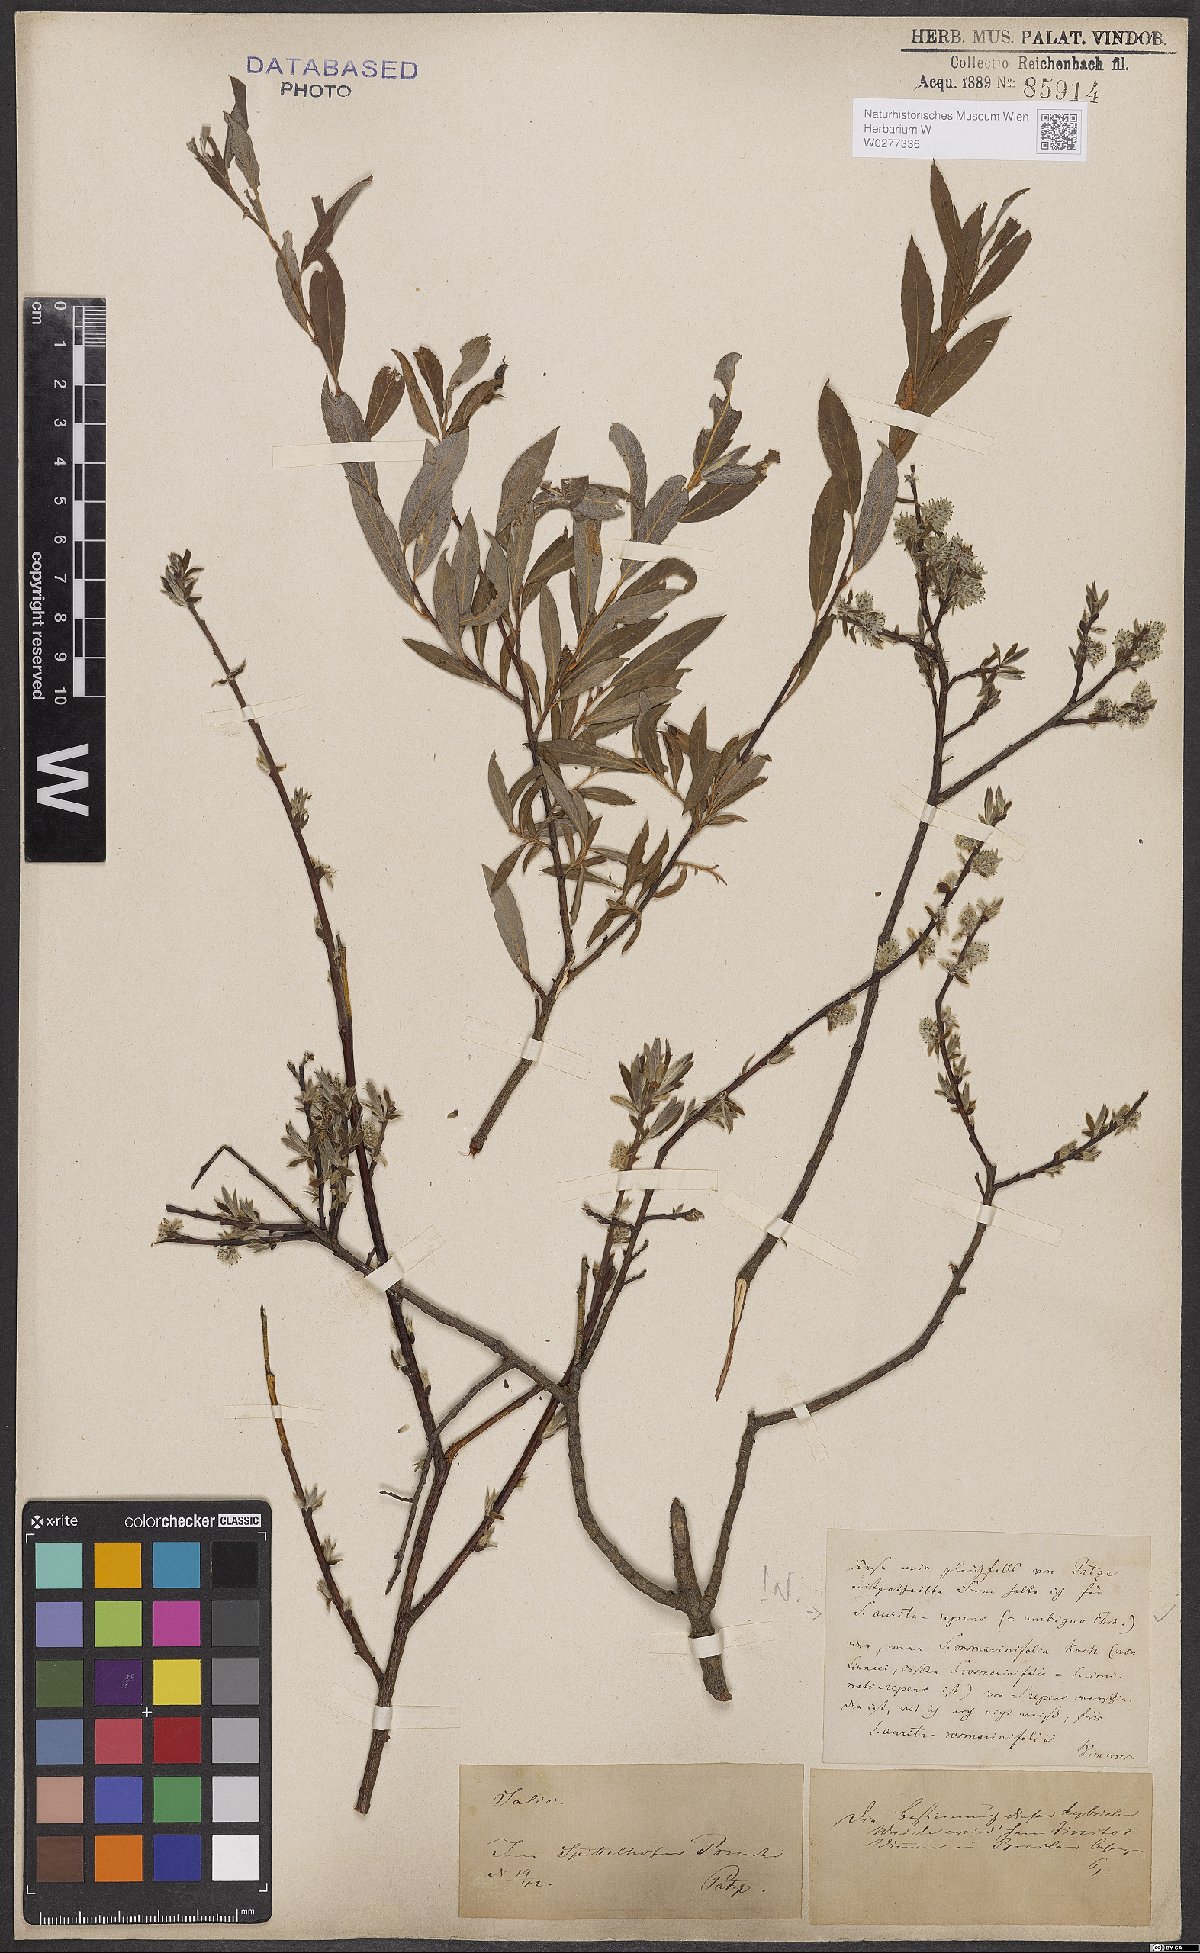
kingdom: Plantae
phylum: Tracheophyta
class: Magnoliopsida
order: Malpighiales
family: Salicaceae
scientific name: Salicaceae
